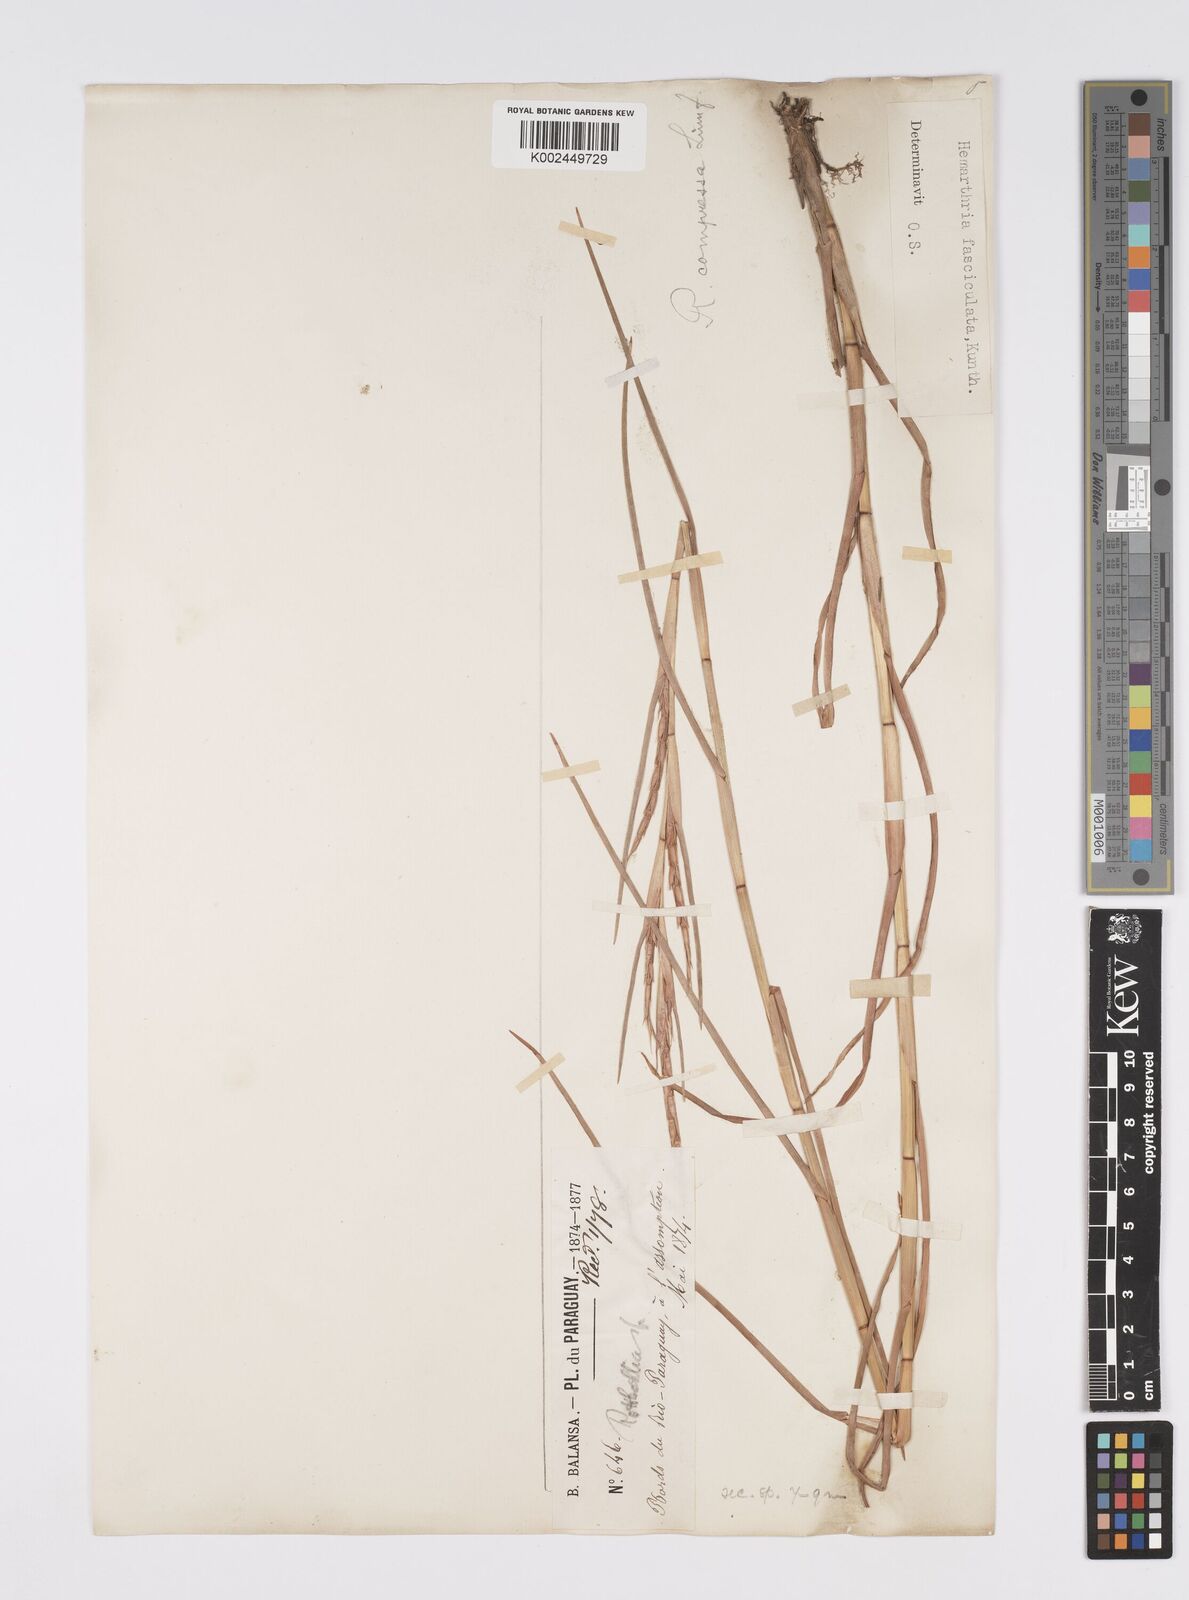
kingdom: Plantae
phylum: Tracheophyta
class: Liliopsida
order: Poales
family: Poaceae
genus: Hemarthria
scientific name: Hemarthria altissima
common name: African jointgrass
